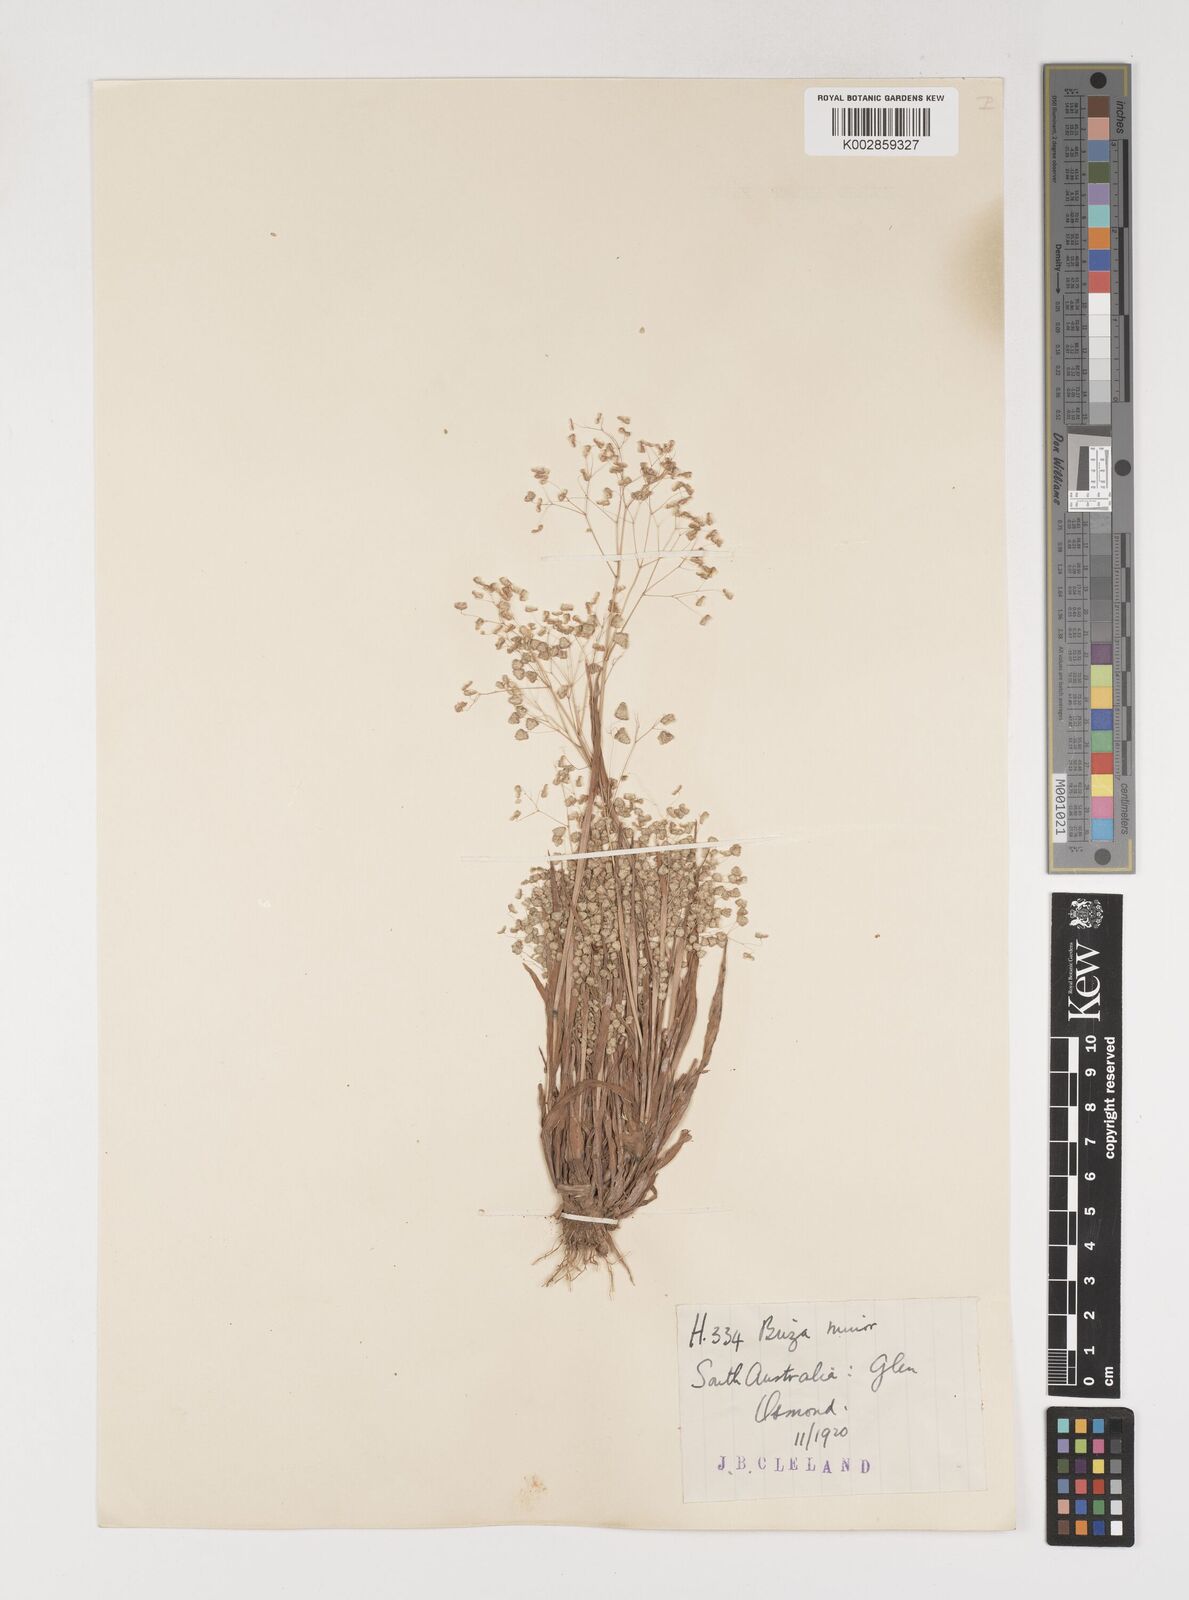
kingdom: Plantae
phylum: Tracheophyta
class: Liliopsida
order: Poales
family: Poaceae
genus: Briza
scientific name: Briza minor
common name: Lesser quaking-grass
